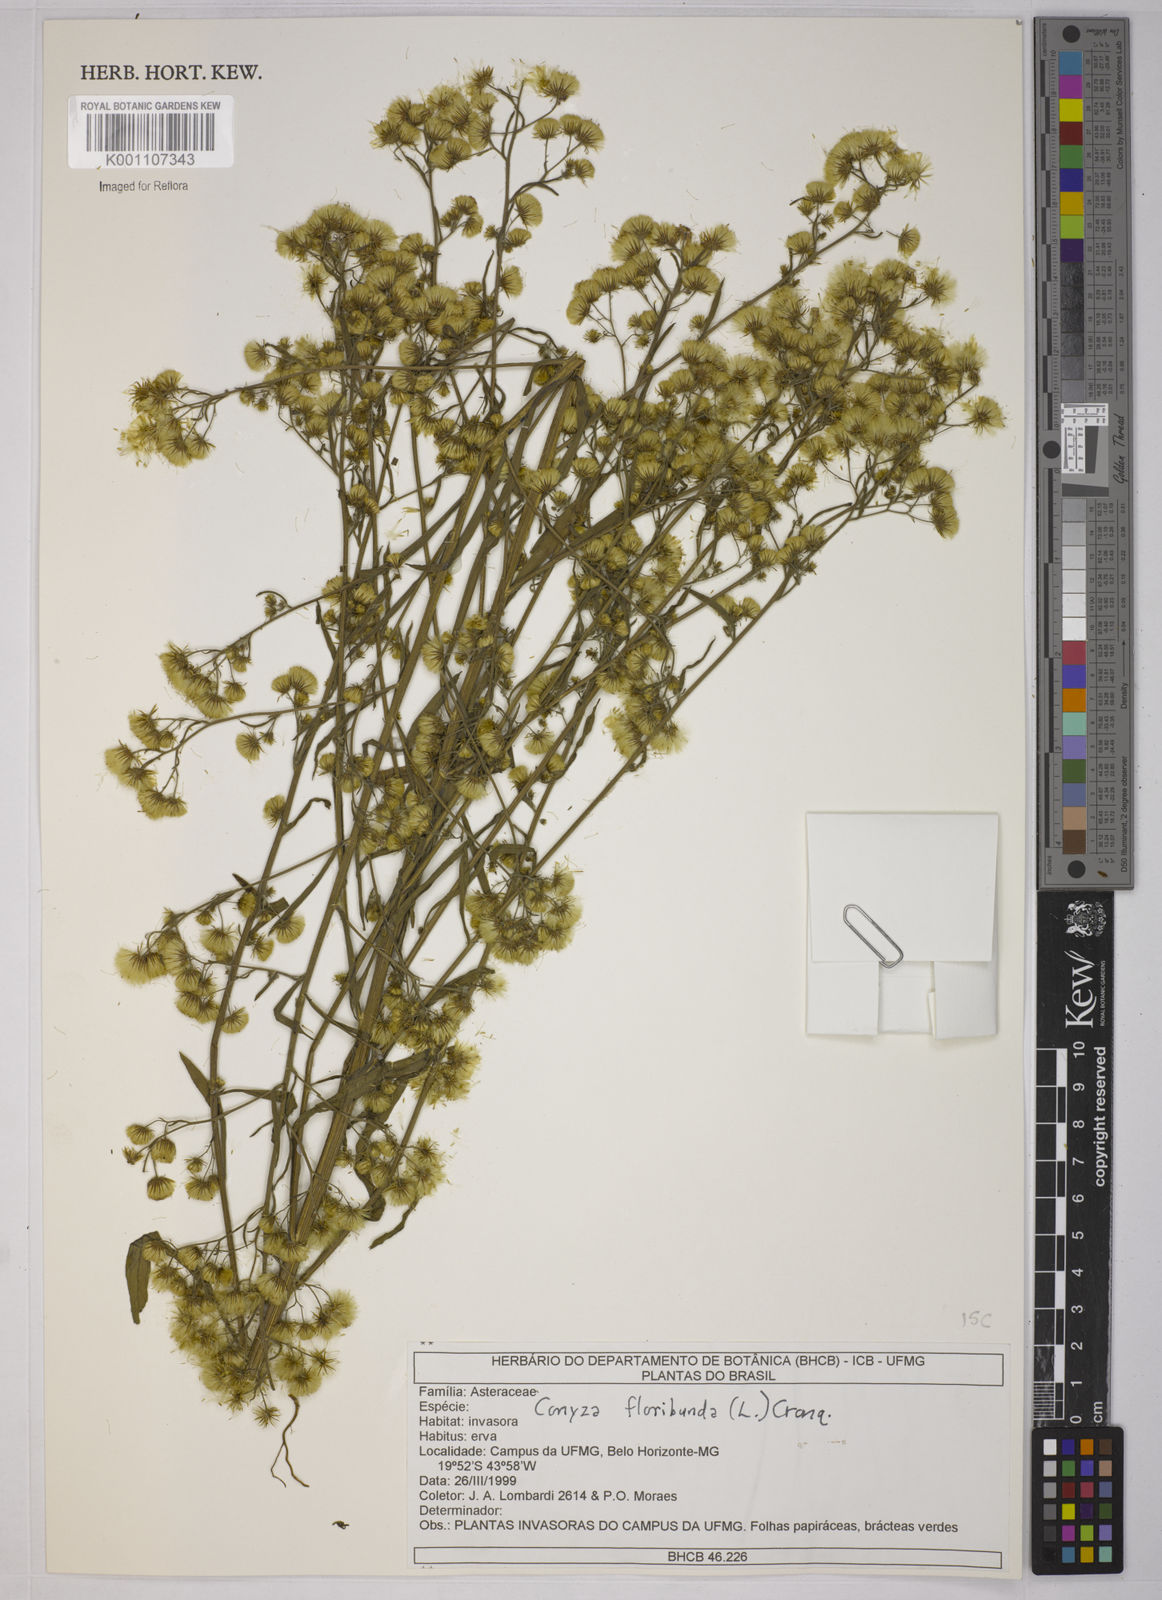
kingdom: Plantae
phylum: Tracheophyta
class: Magnoliopsida
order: Asterales
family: Asteraceae
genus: Erigeron
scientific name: Erigeron floribundus
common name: Bilbao fleabane
